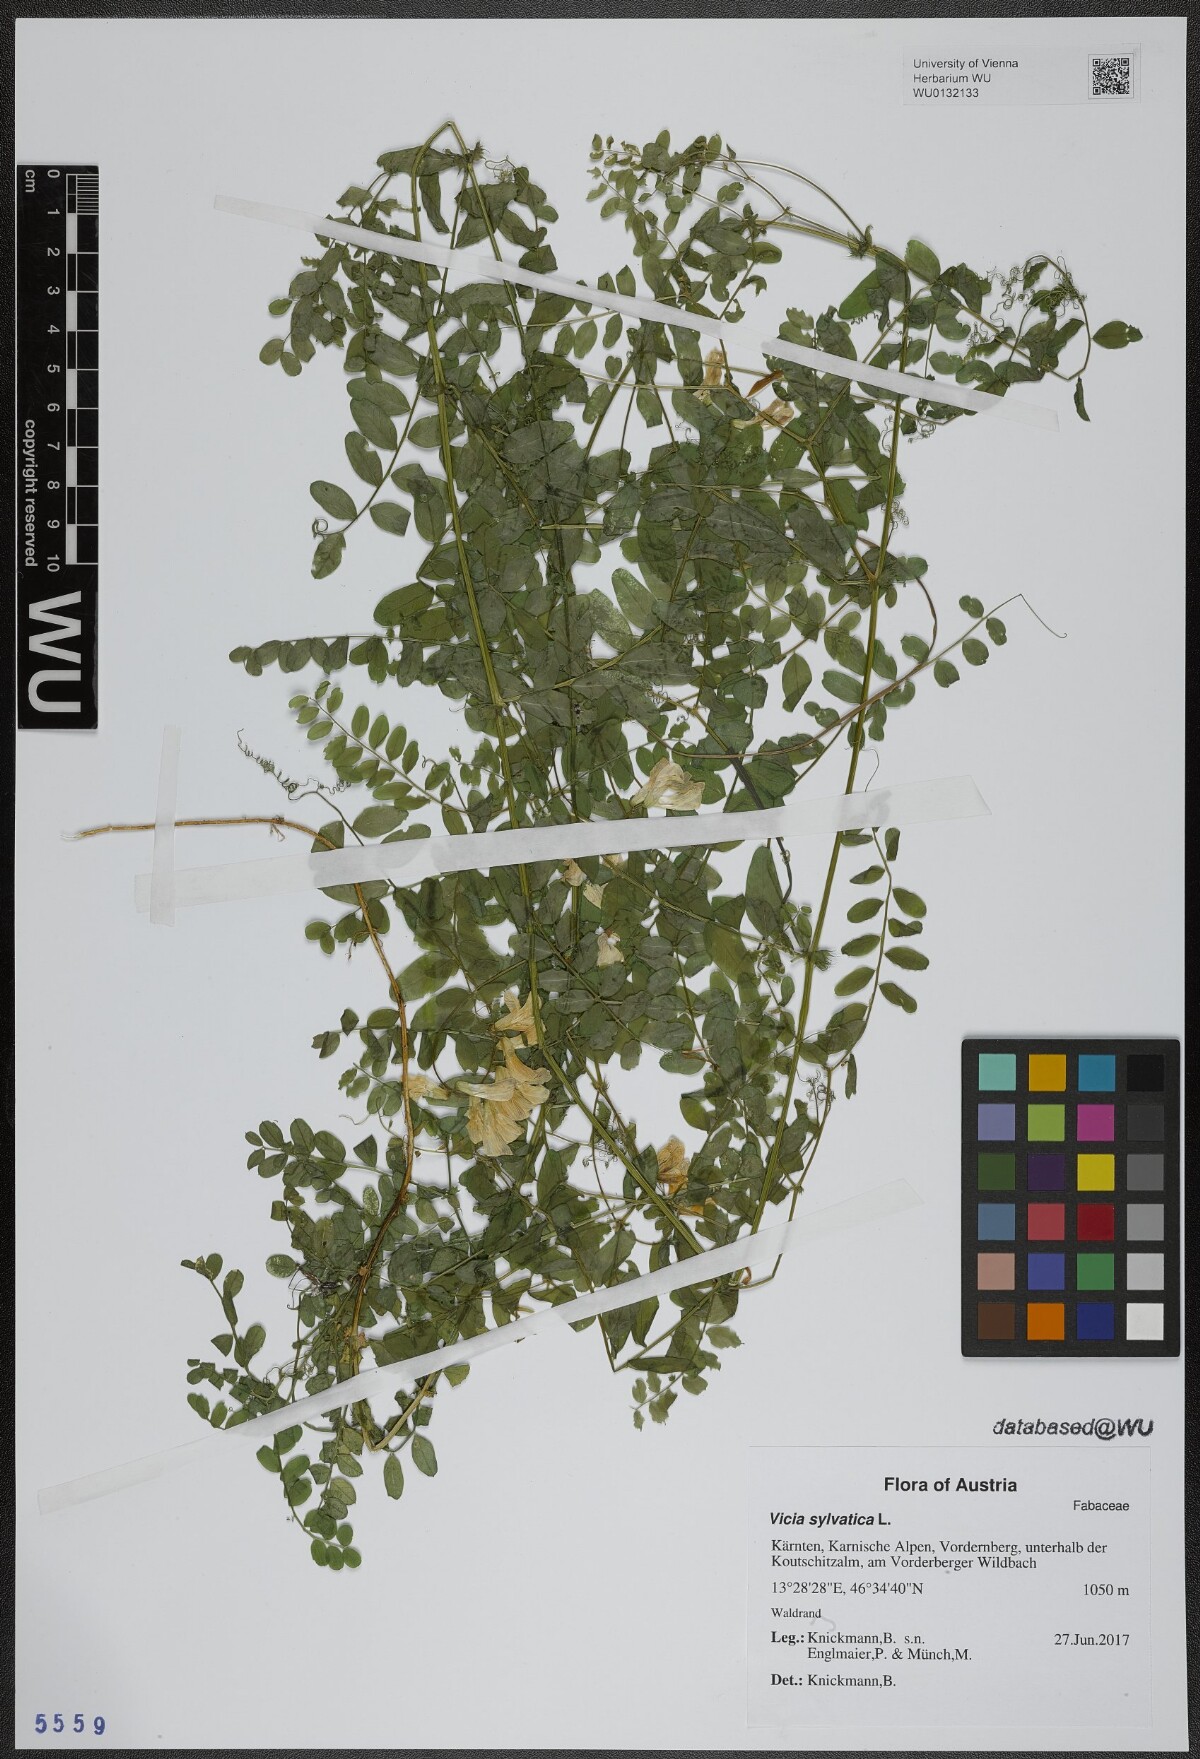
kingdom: Plantae
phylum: Tracheophyta
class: Magnoliopsida
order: Fabales
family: Fabaceae
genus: Vicia
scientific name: Vicia sylvatica
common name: Wood vetch
